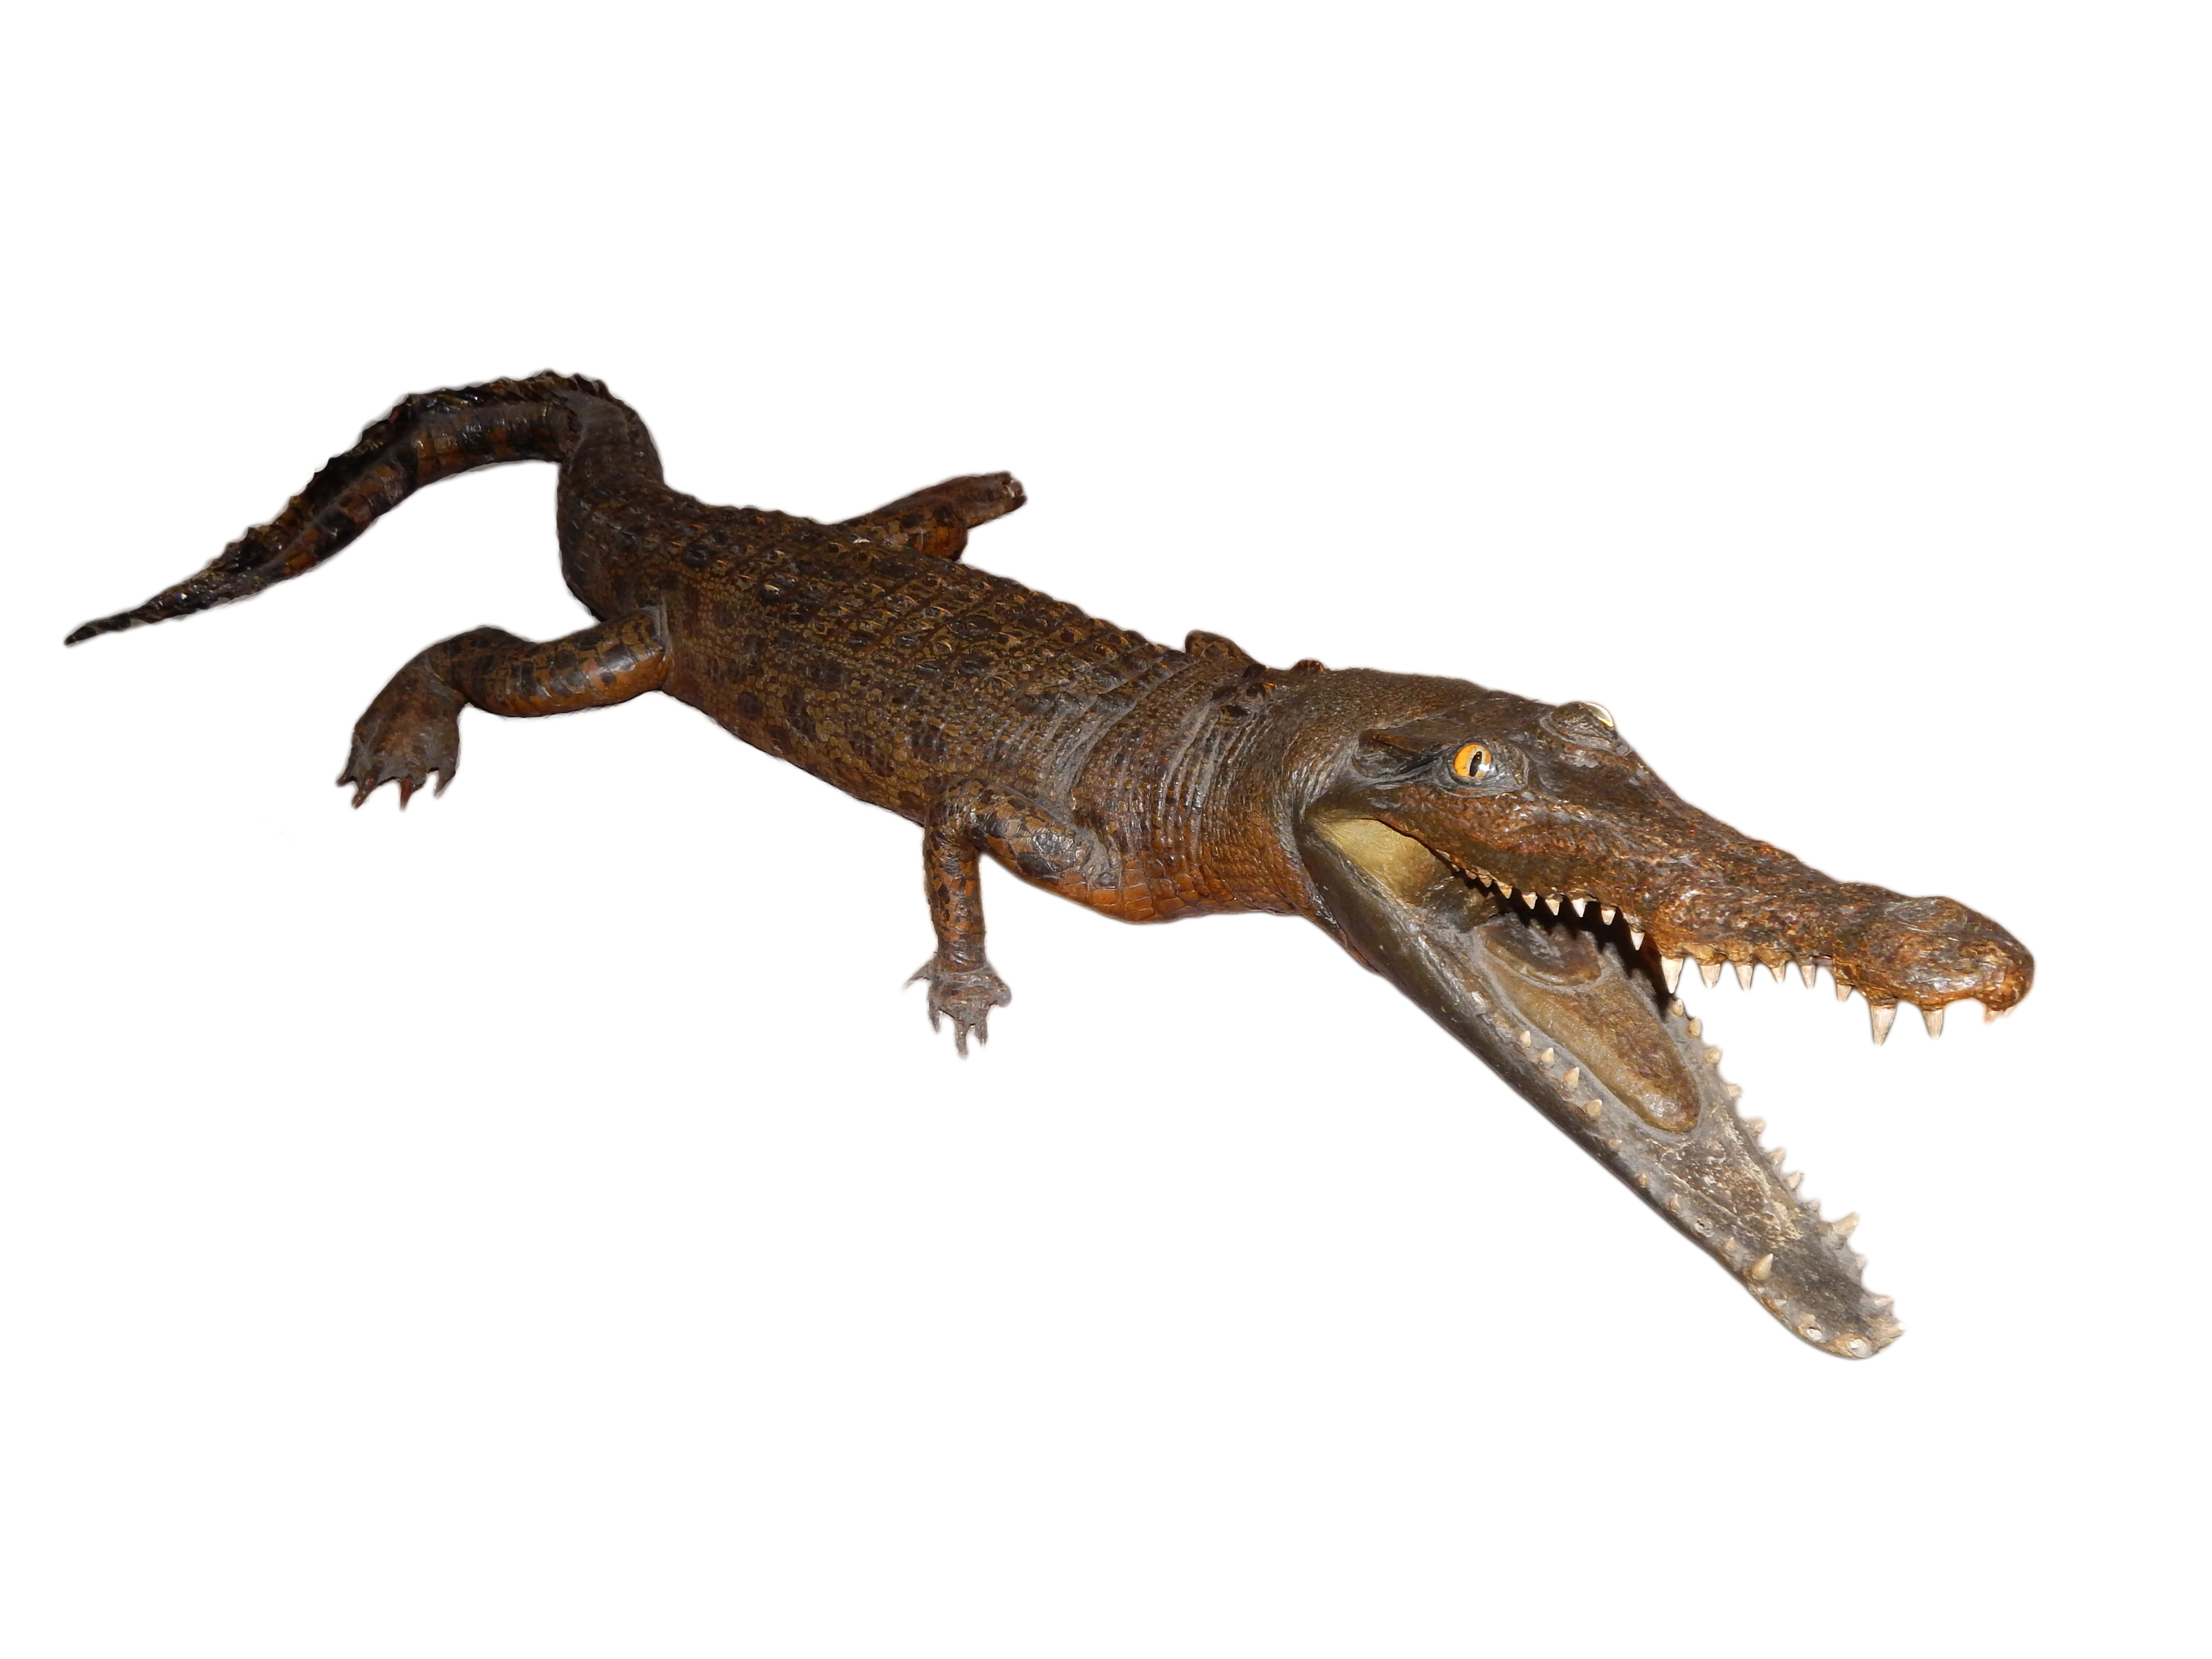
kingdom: Animalia
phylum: Chordata
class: Crocodylia
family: Crocodylidae
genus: Crocodylus
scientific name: Crocodylus porosus
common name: Saltwater crocodile
